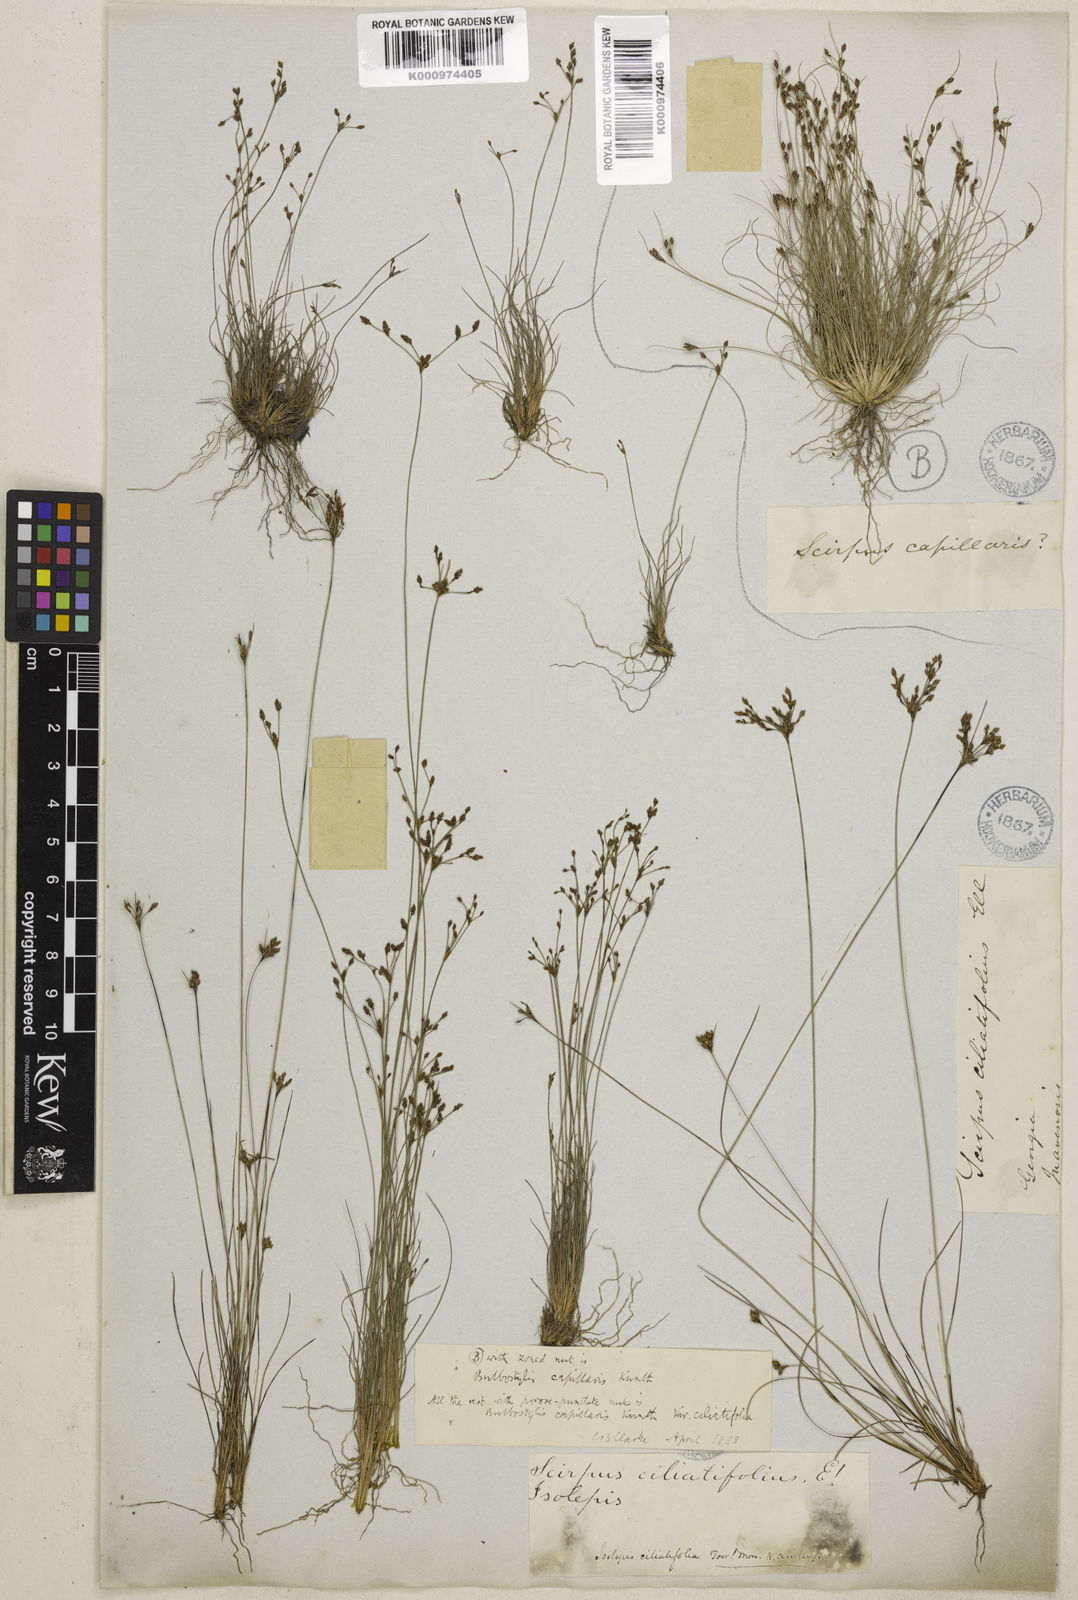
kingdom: Plantae
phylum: Tracheophyta
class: Liliopsida
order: Poales
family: Cyperaceae
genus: Bulbostylis
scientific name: Bulbostylis ciliatifolia
